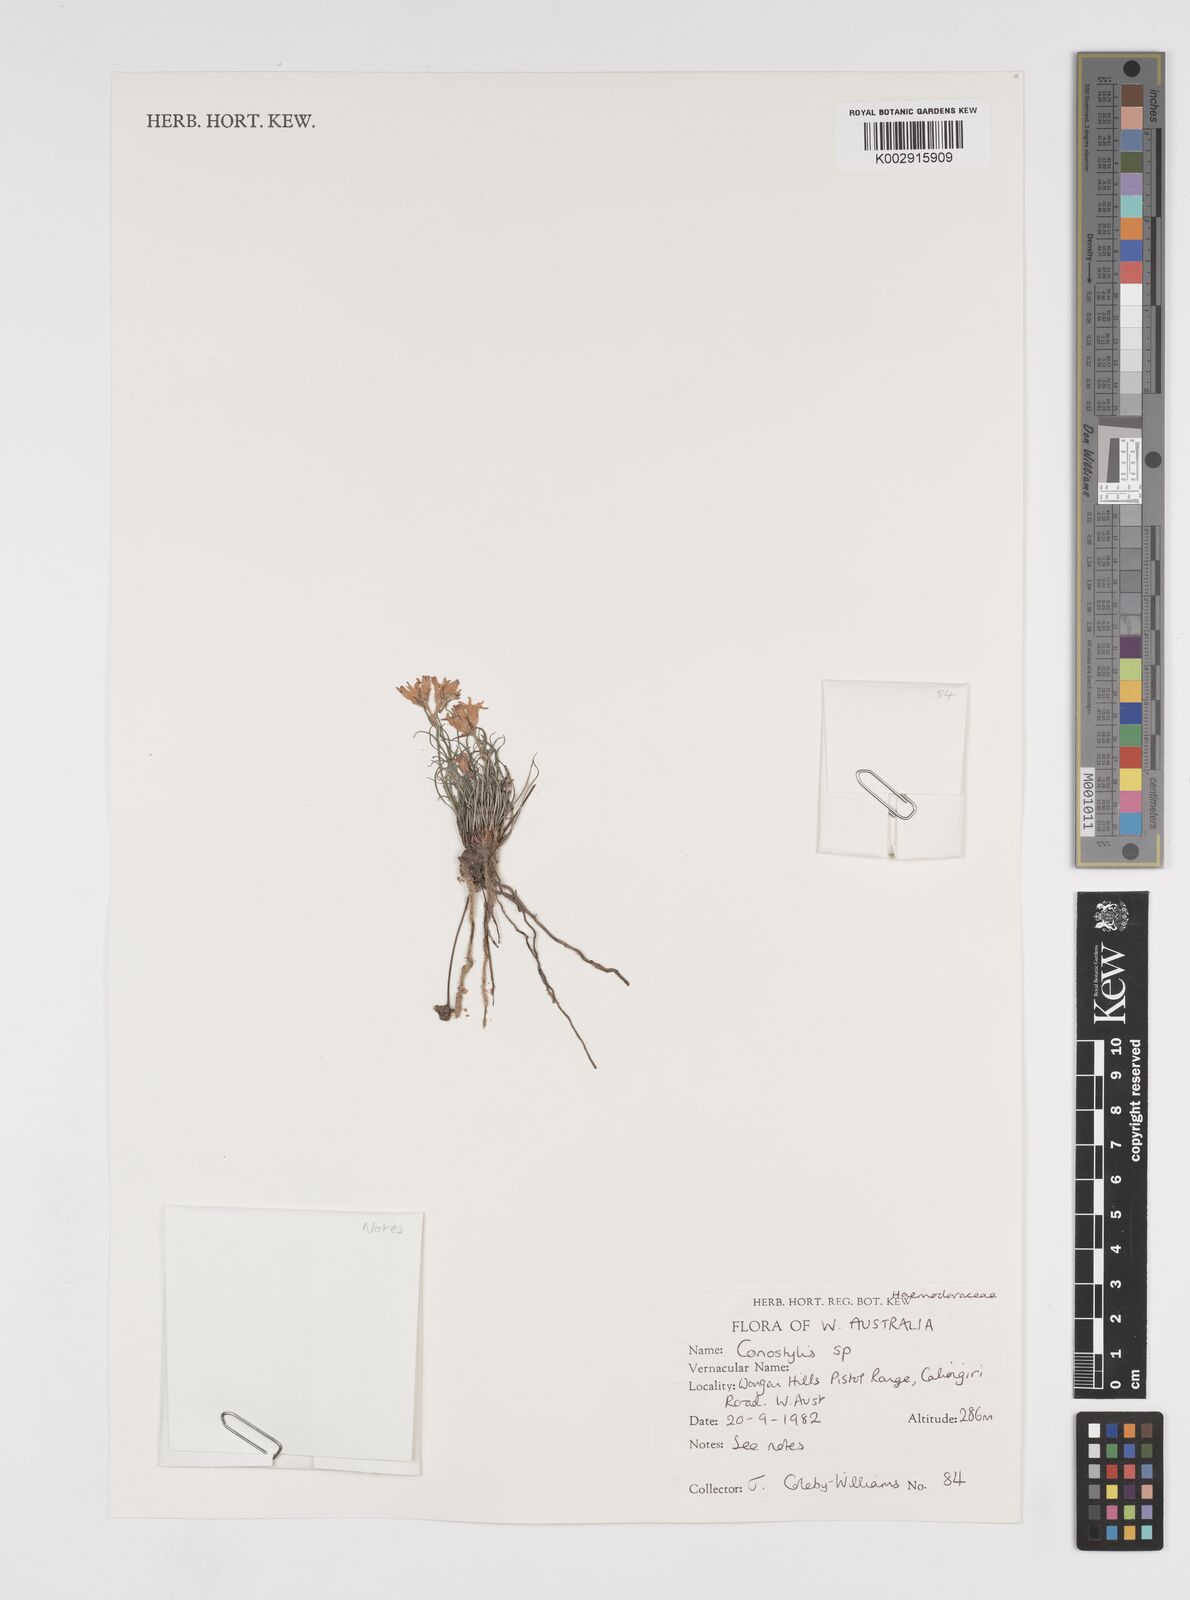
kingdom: Plantae
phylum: Tracheophyta
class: Liliopsida
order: Commelinales
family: Haemodoraceae
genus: Conostylis
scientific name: Conostylis
